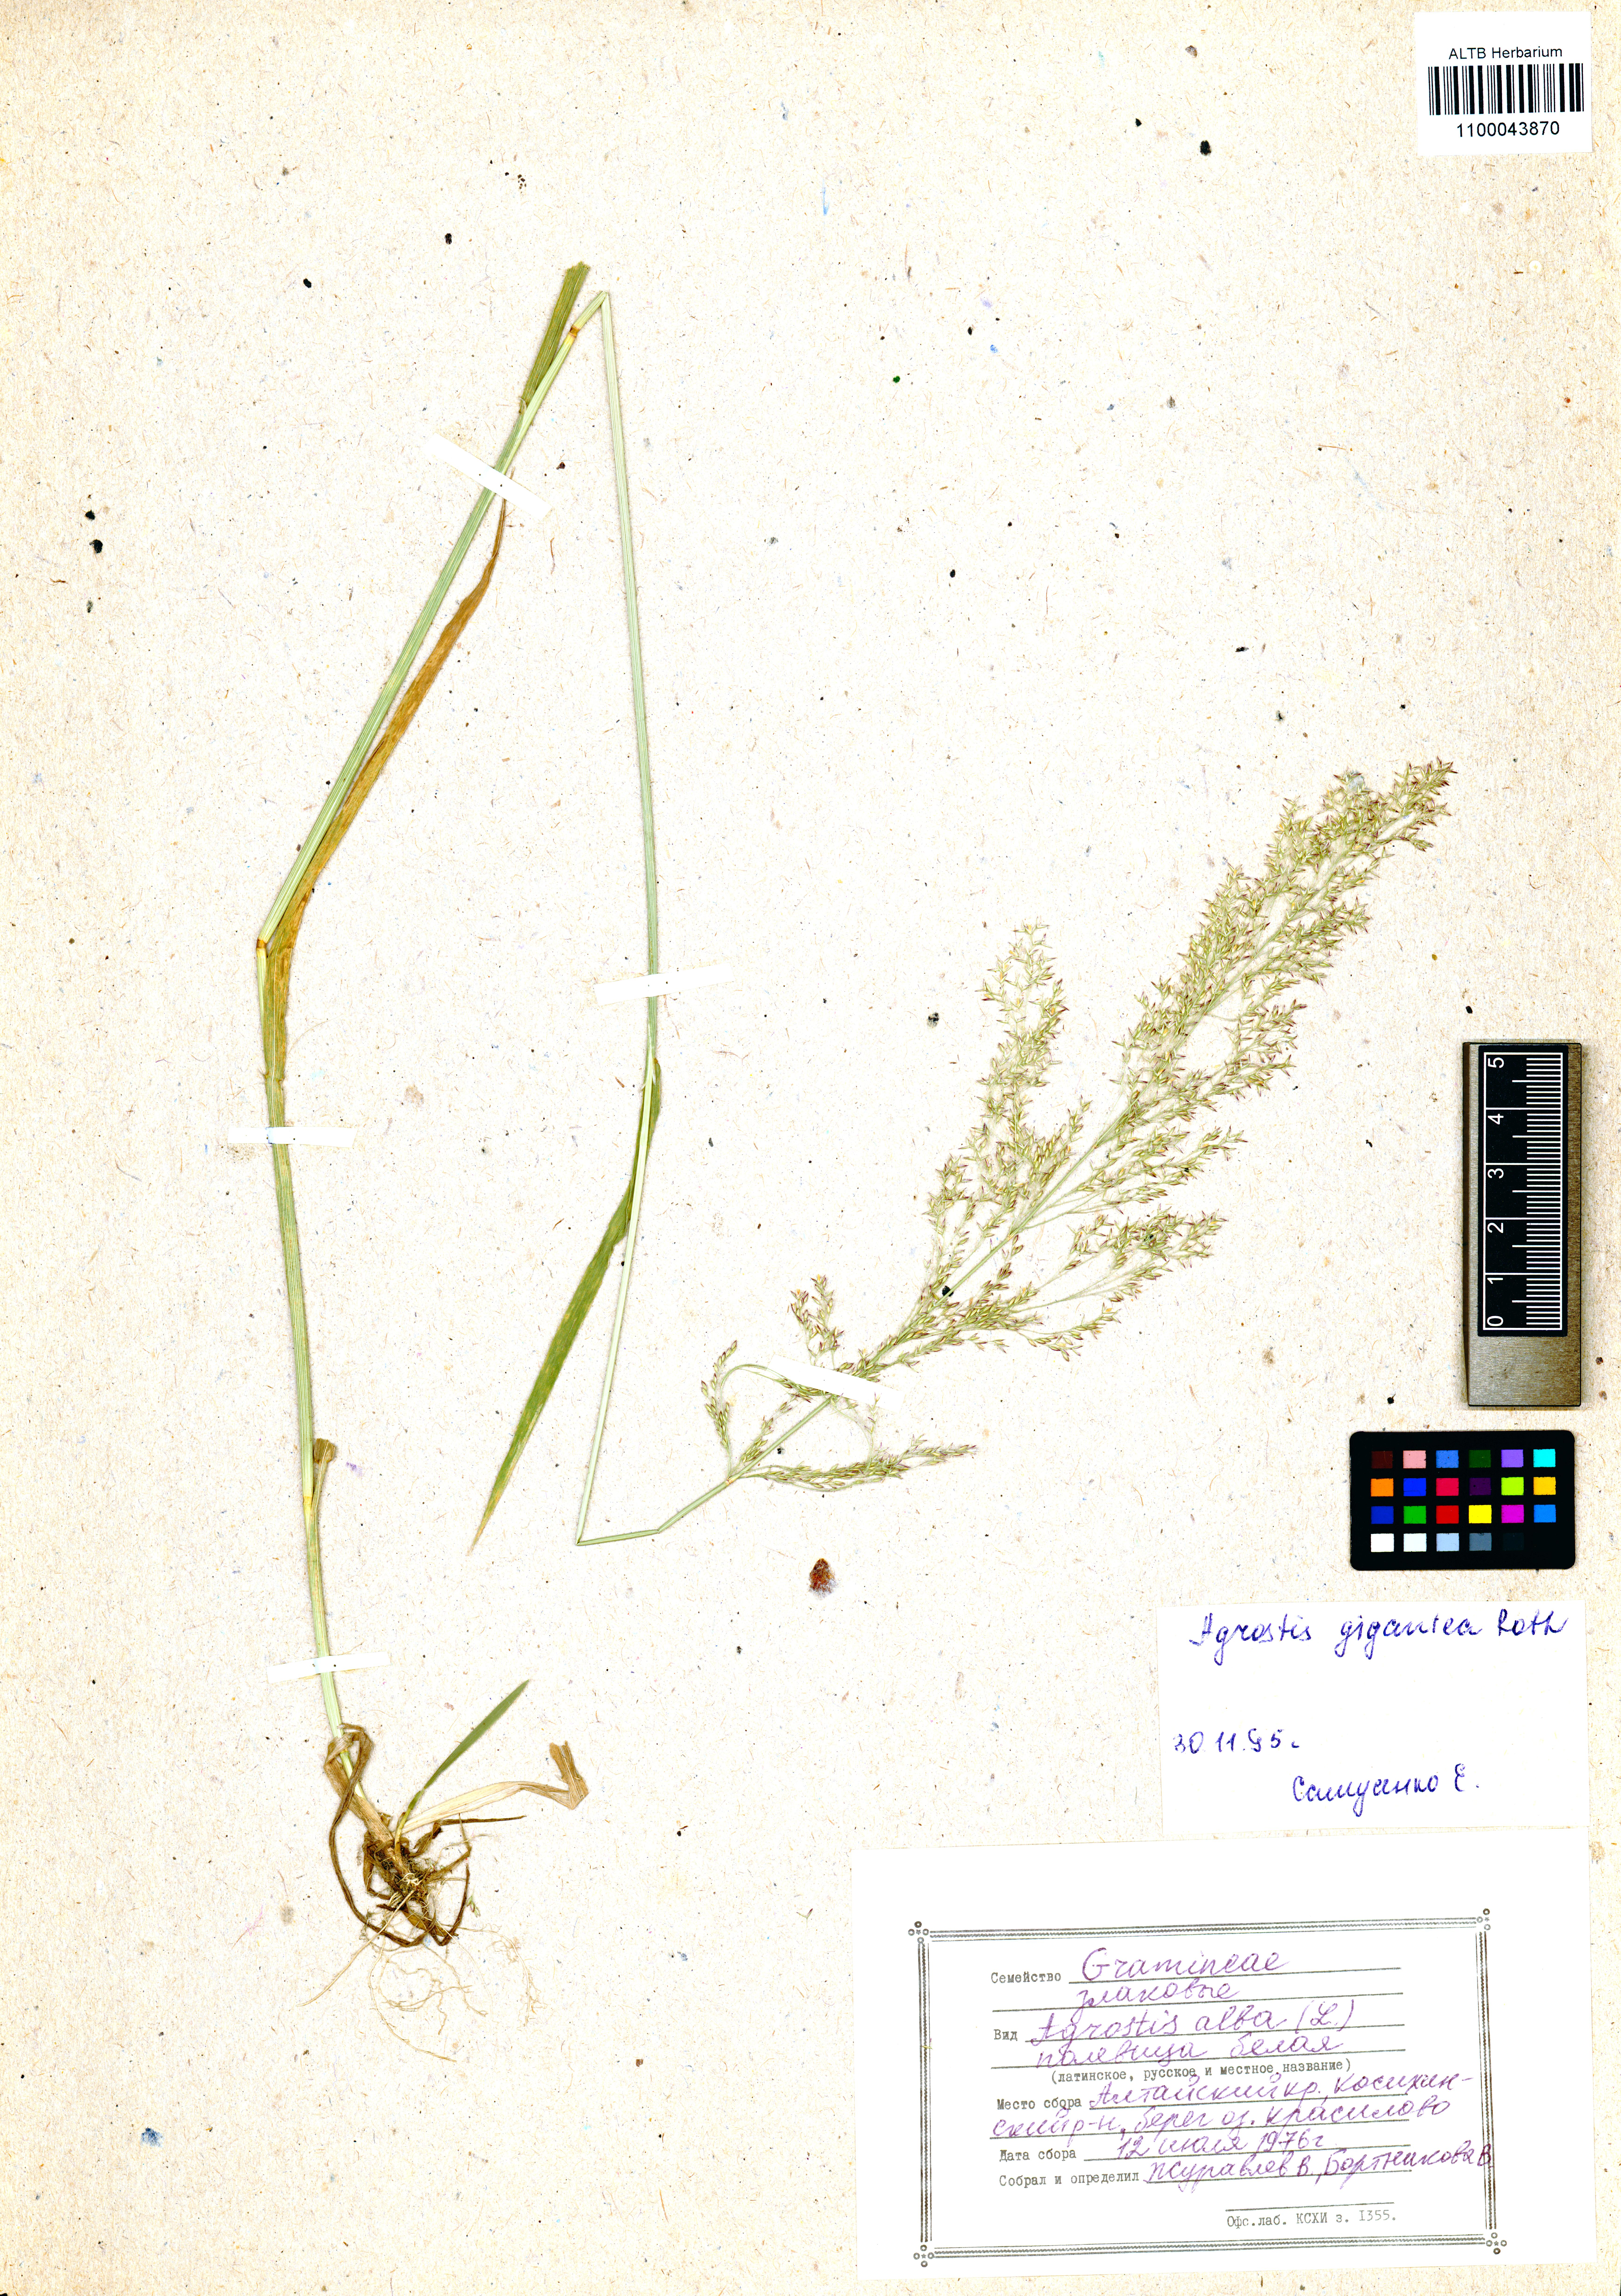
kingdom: Plantae
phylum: Tracheophyta
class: Liliopsida
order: Poales
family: Poaceae
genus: Agrostis
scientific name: Agrostis gigantea
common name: Black bent
